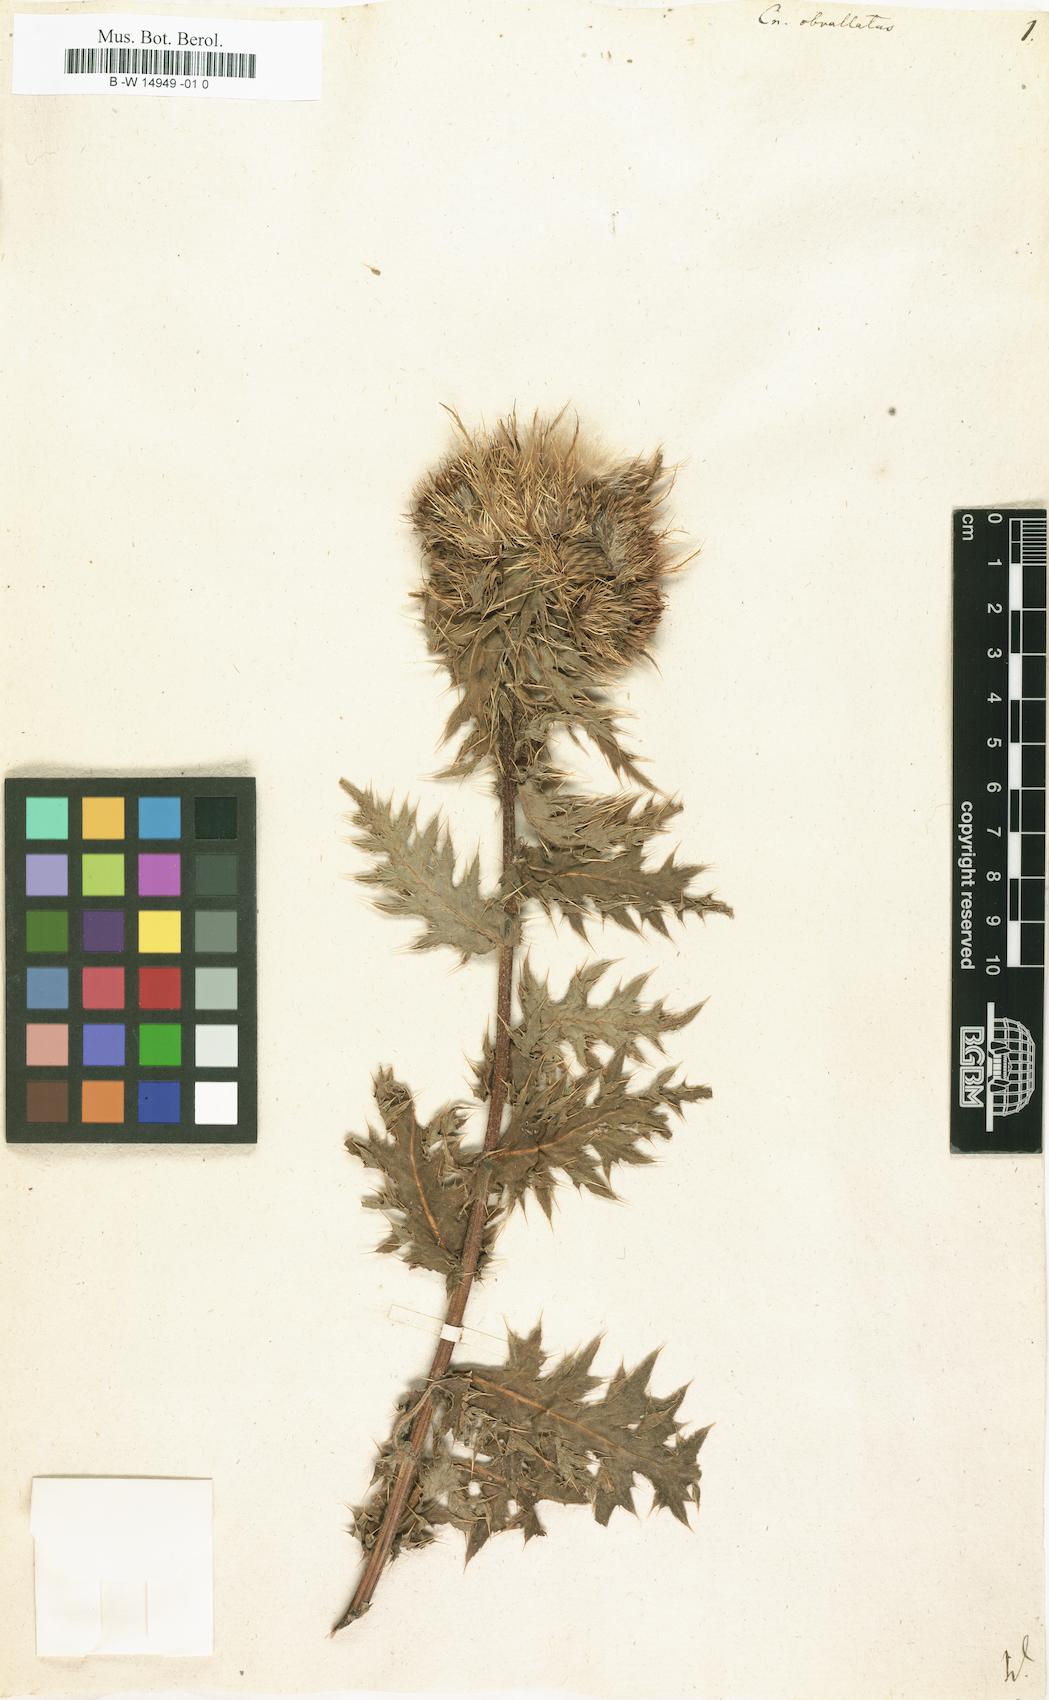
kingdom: Plantae
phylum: Tracheophyta
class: Magnoliopsida
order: Asterales
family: Asteraceae
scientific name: Asteraceae
